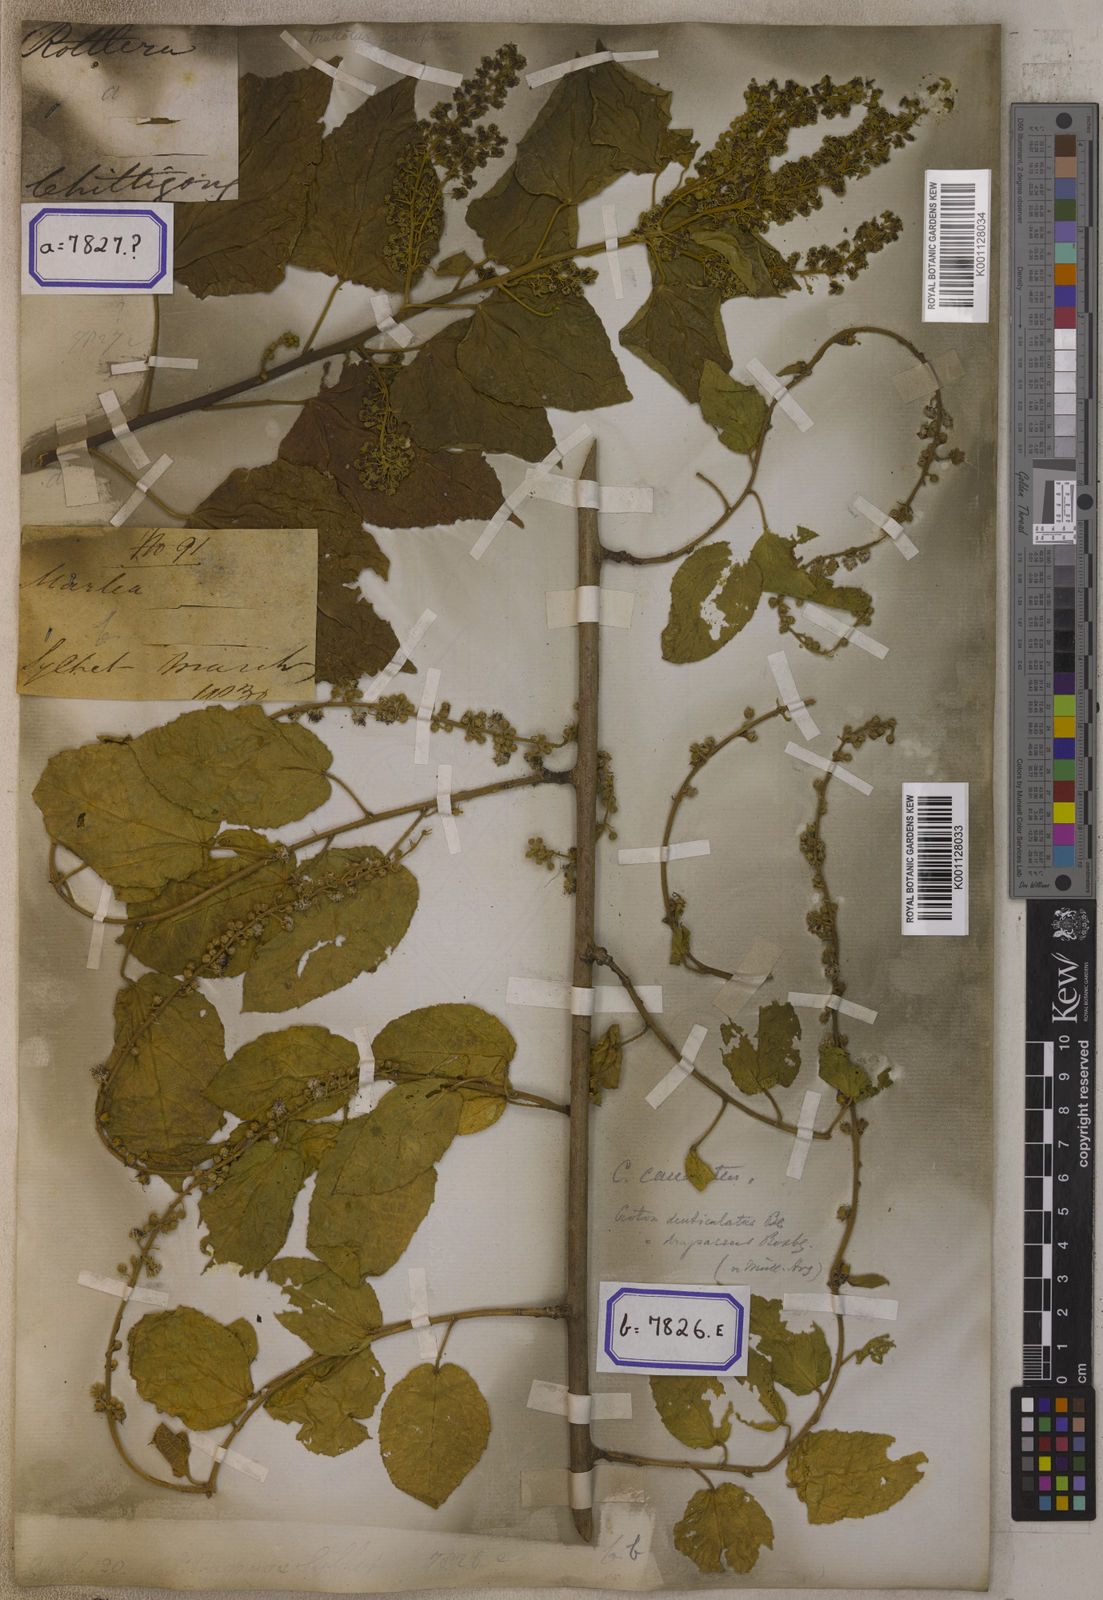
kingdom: Plantae
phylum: Tracheophyta
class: Magnoliopsida
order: Malpighiales
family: Euphorbiaceae
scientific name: Euphorbiaceae
